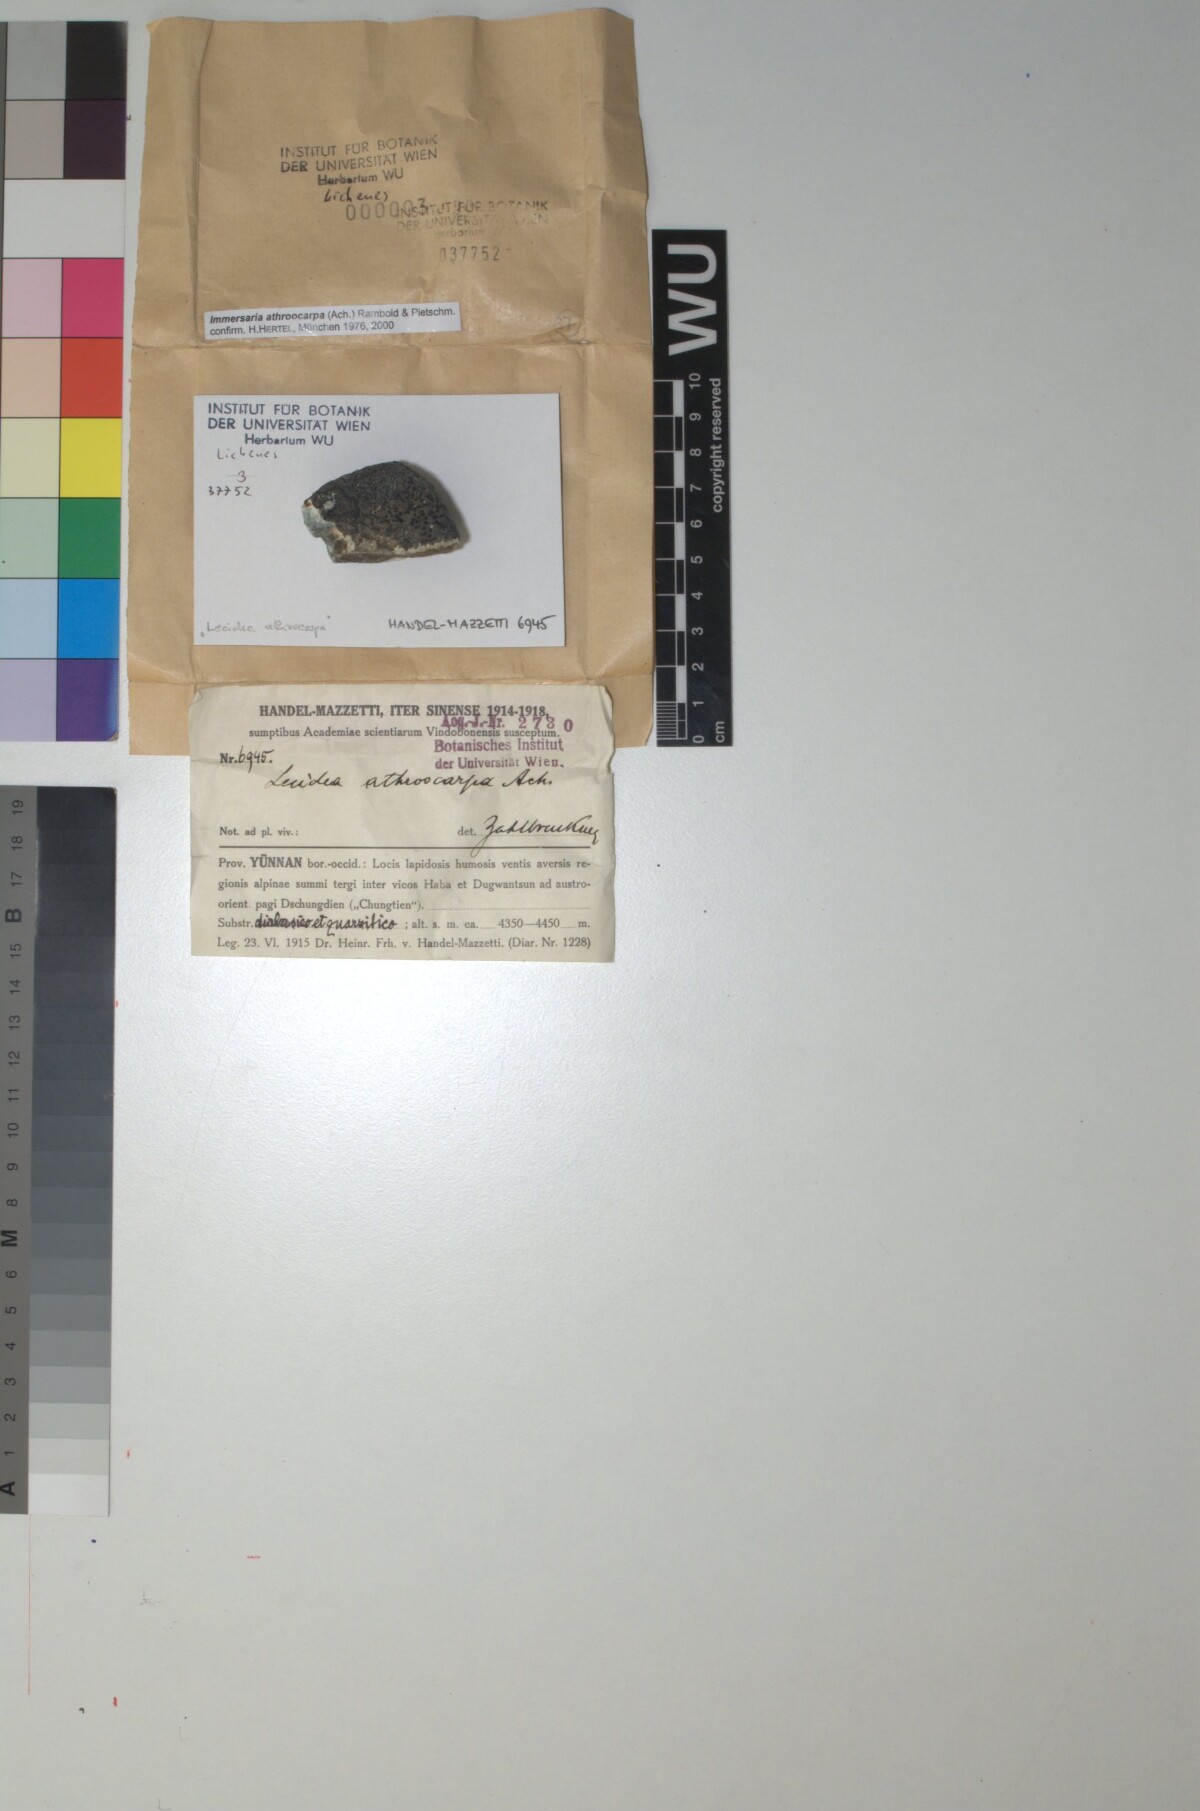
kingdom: Fungi
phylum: Ascomycota
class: Lecanoromycetes
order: Lecideales
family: Lecideaceae
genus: Immersaria
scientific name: Immersaria athroocarpa
